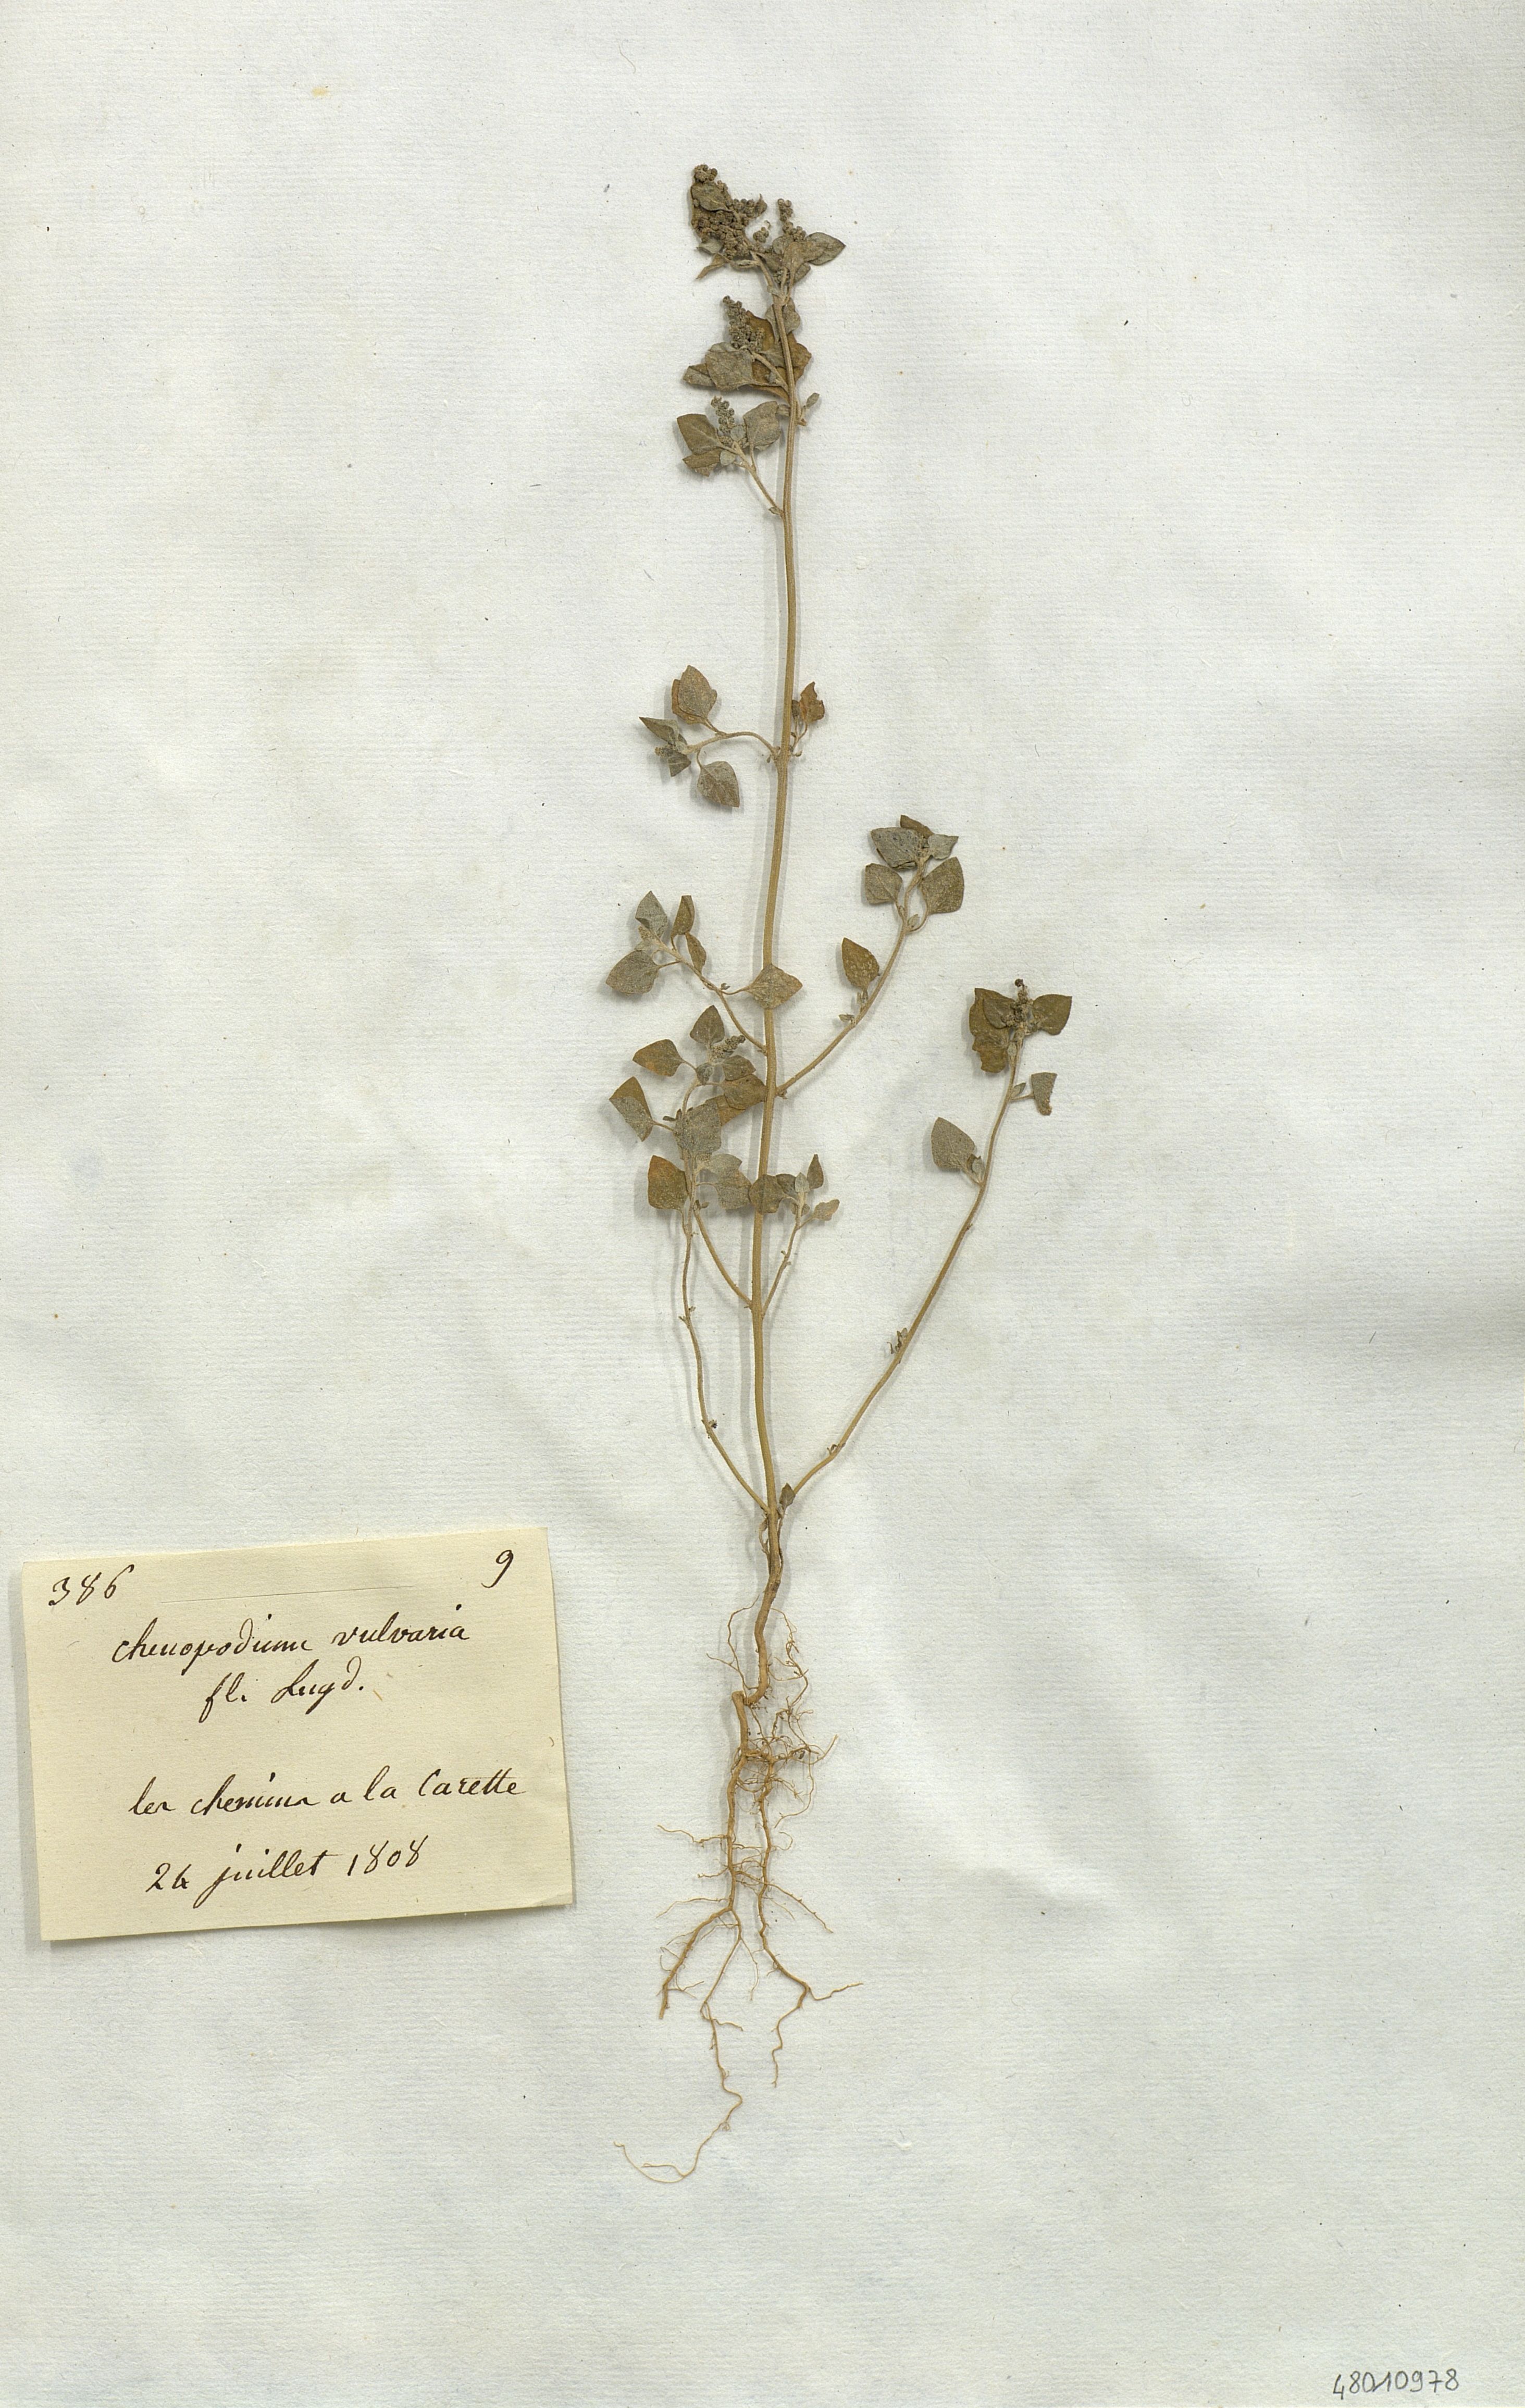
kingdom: Plantae
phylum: Tracheophyta
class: Magnoliopsida
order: Caryophyllales
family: Amaranthaceae
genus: Chenopodium
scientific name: Chenopodium vulvaria
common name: Stinking goosefoot
